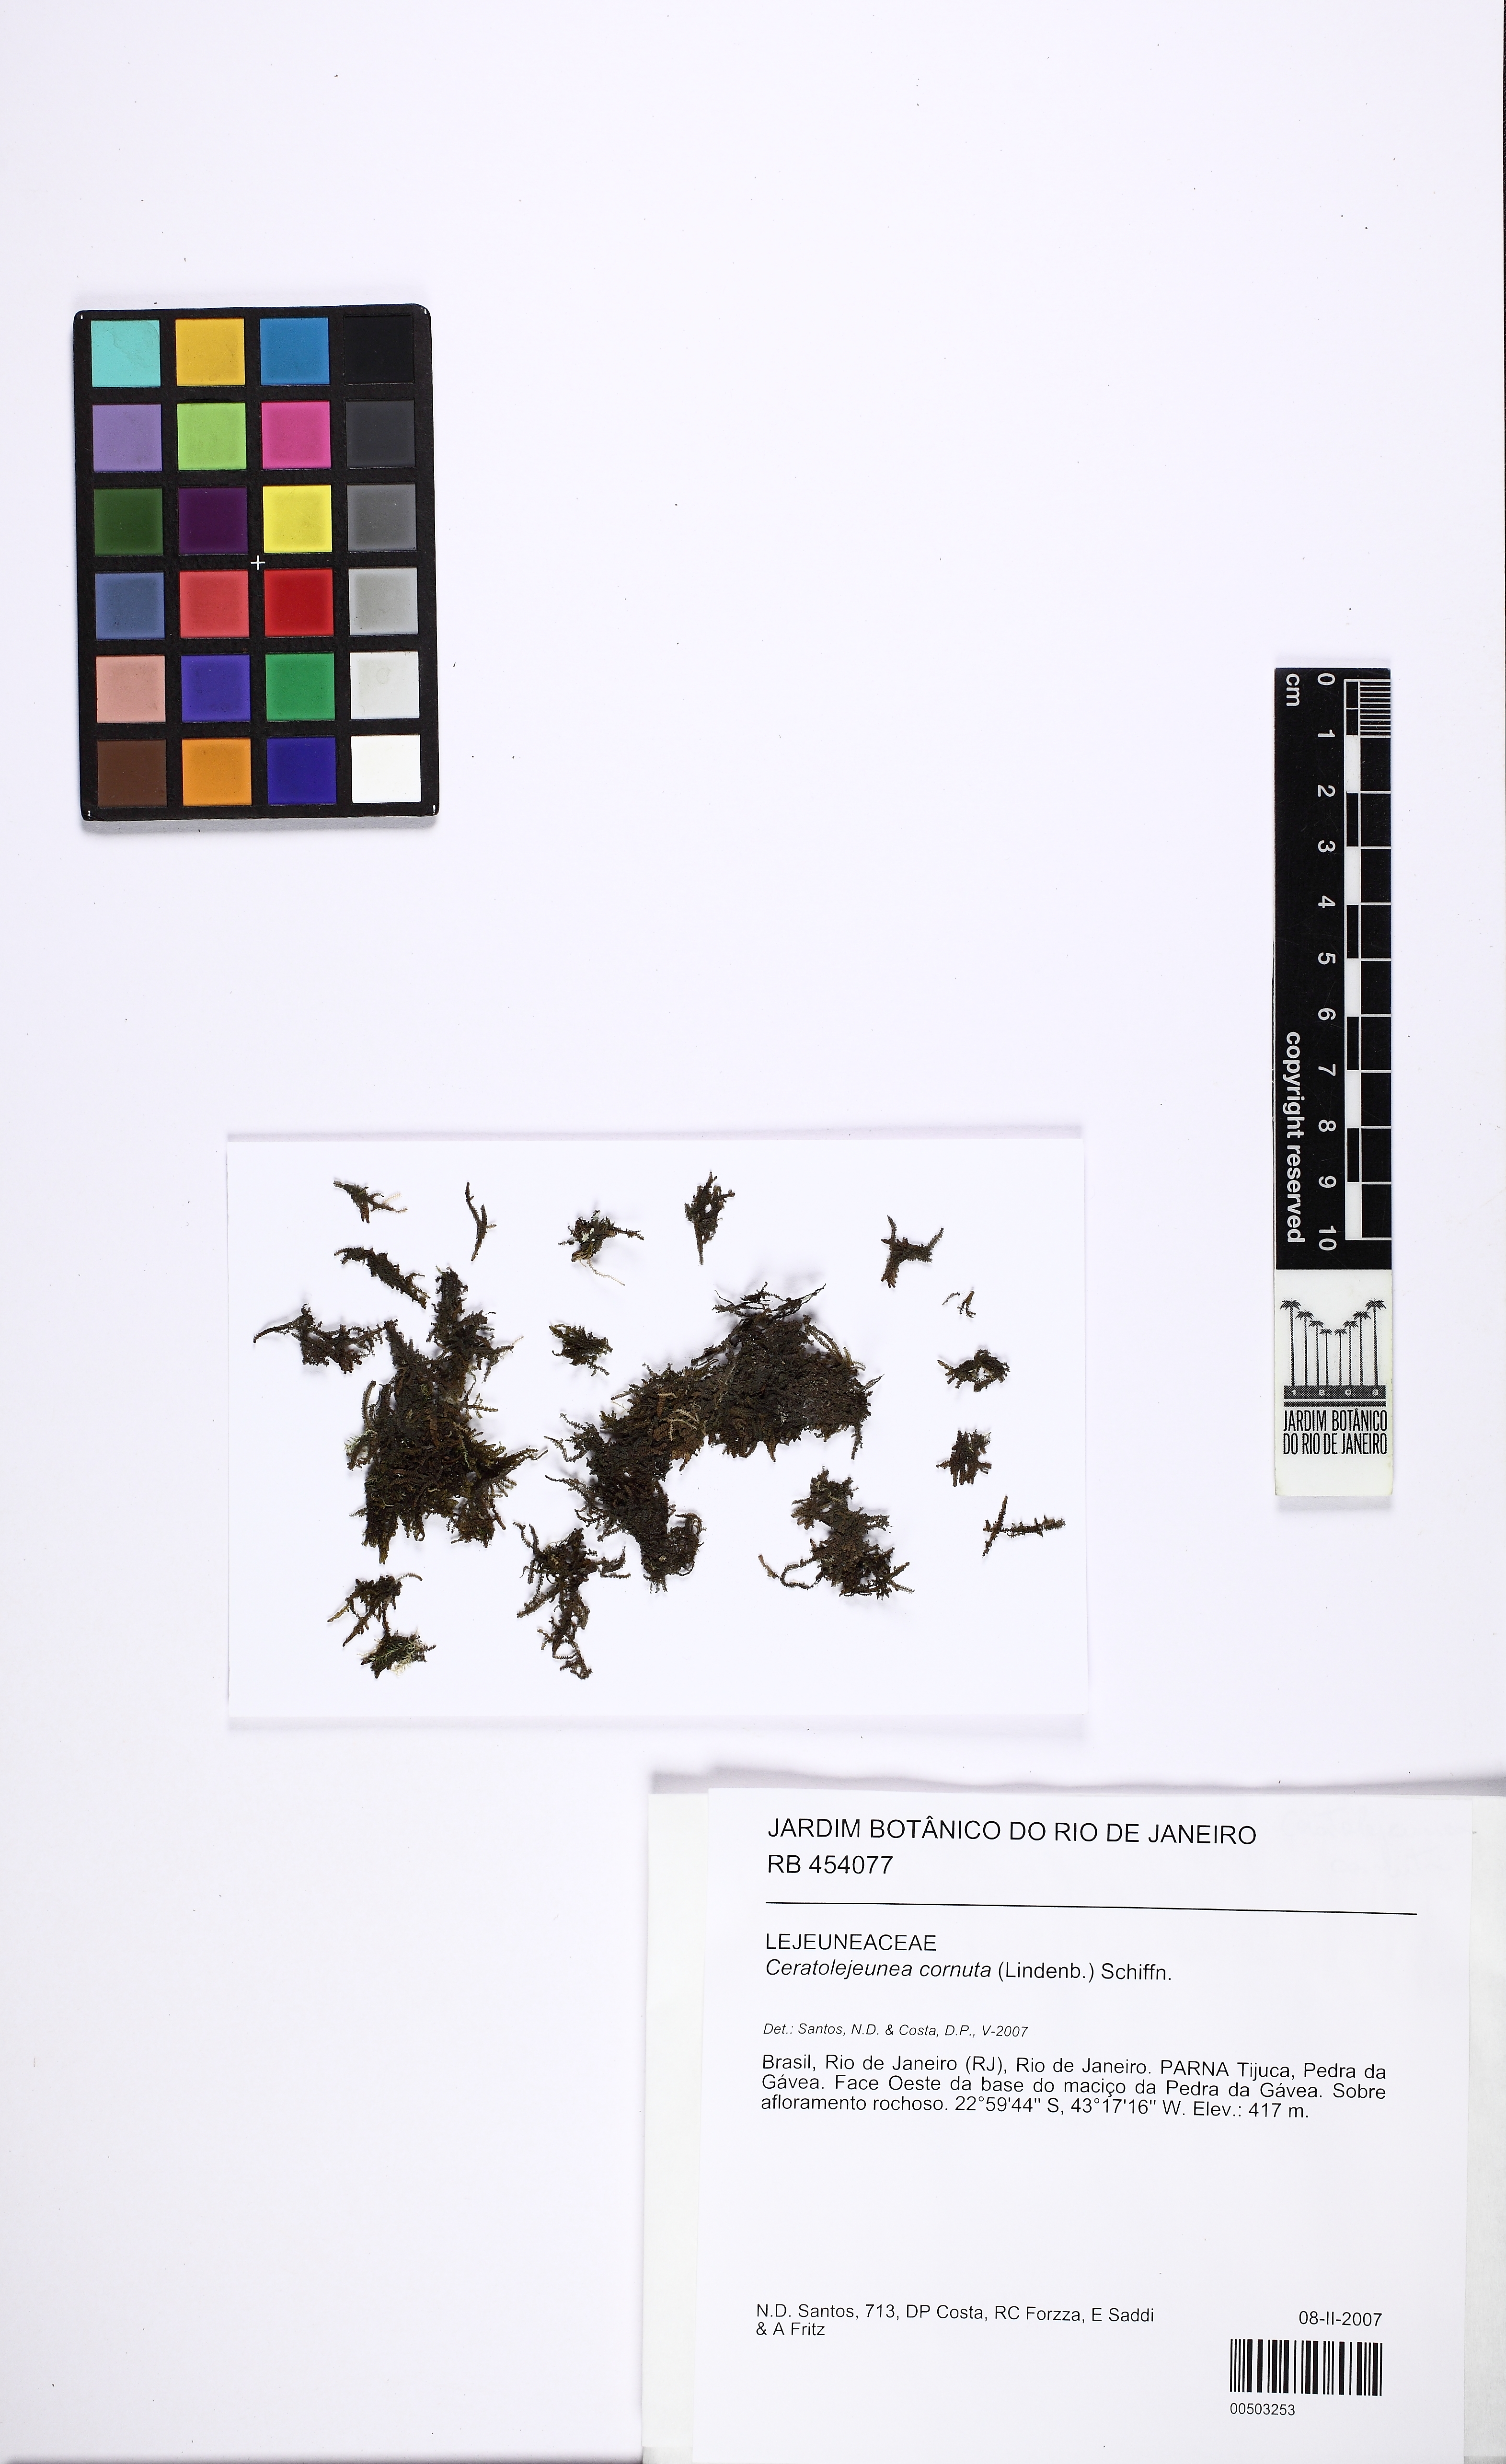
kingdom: Plantae
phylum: Marchantiophyta
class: Jungermanniopsida
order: Porellales
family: Lejeuneaceae
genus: Ceratolejeunea
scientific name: Ceratolejeunea cornuta
